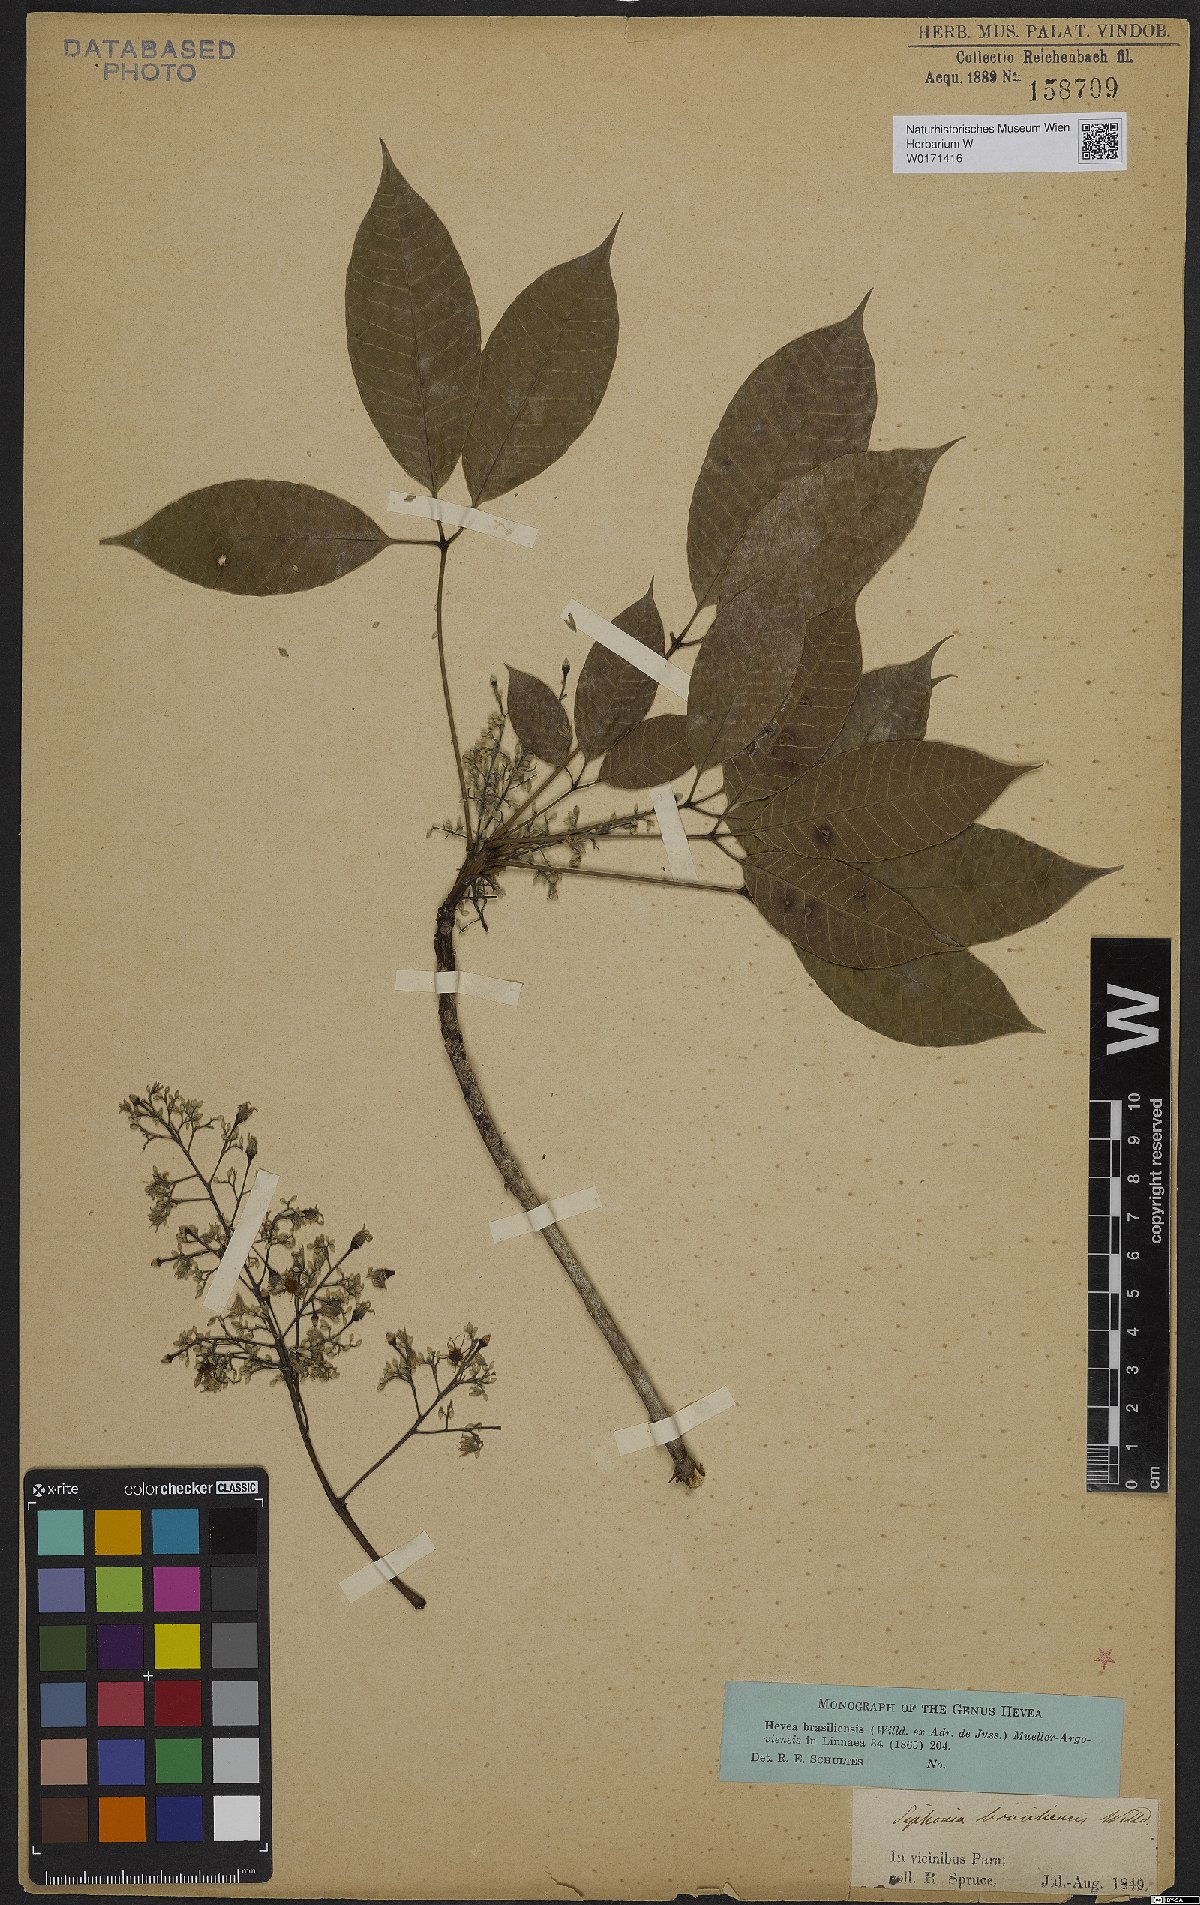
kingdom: Plantae
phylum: Tracheophyta
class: Magnoliopsida
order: Malpighiales
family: Euphorbiaceae
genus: Hevea
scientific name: Hevea brasiliensis
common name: Natural rubber
